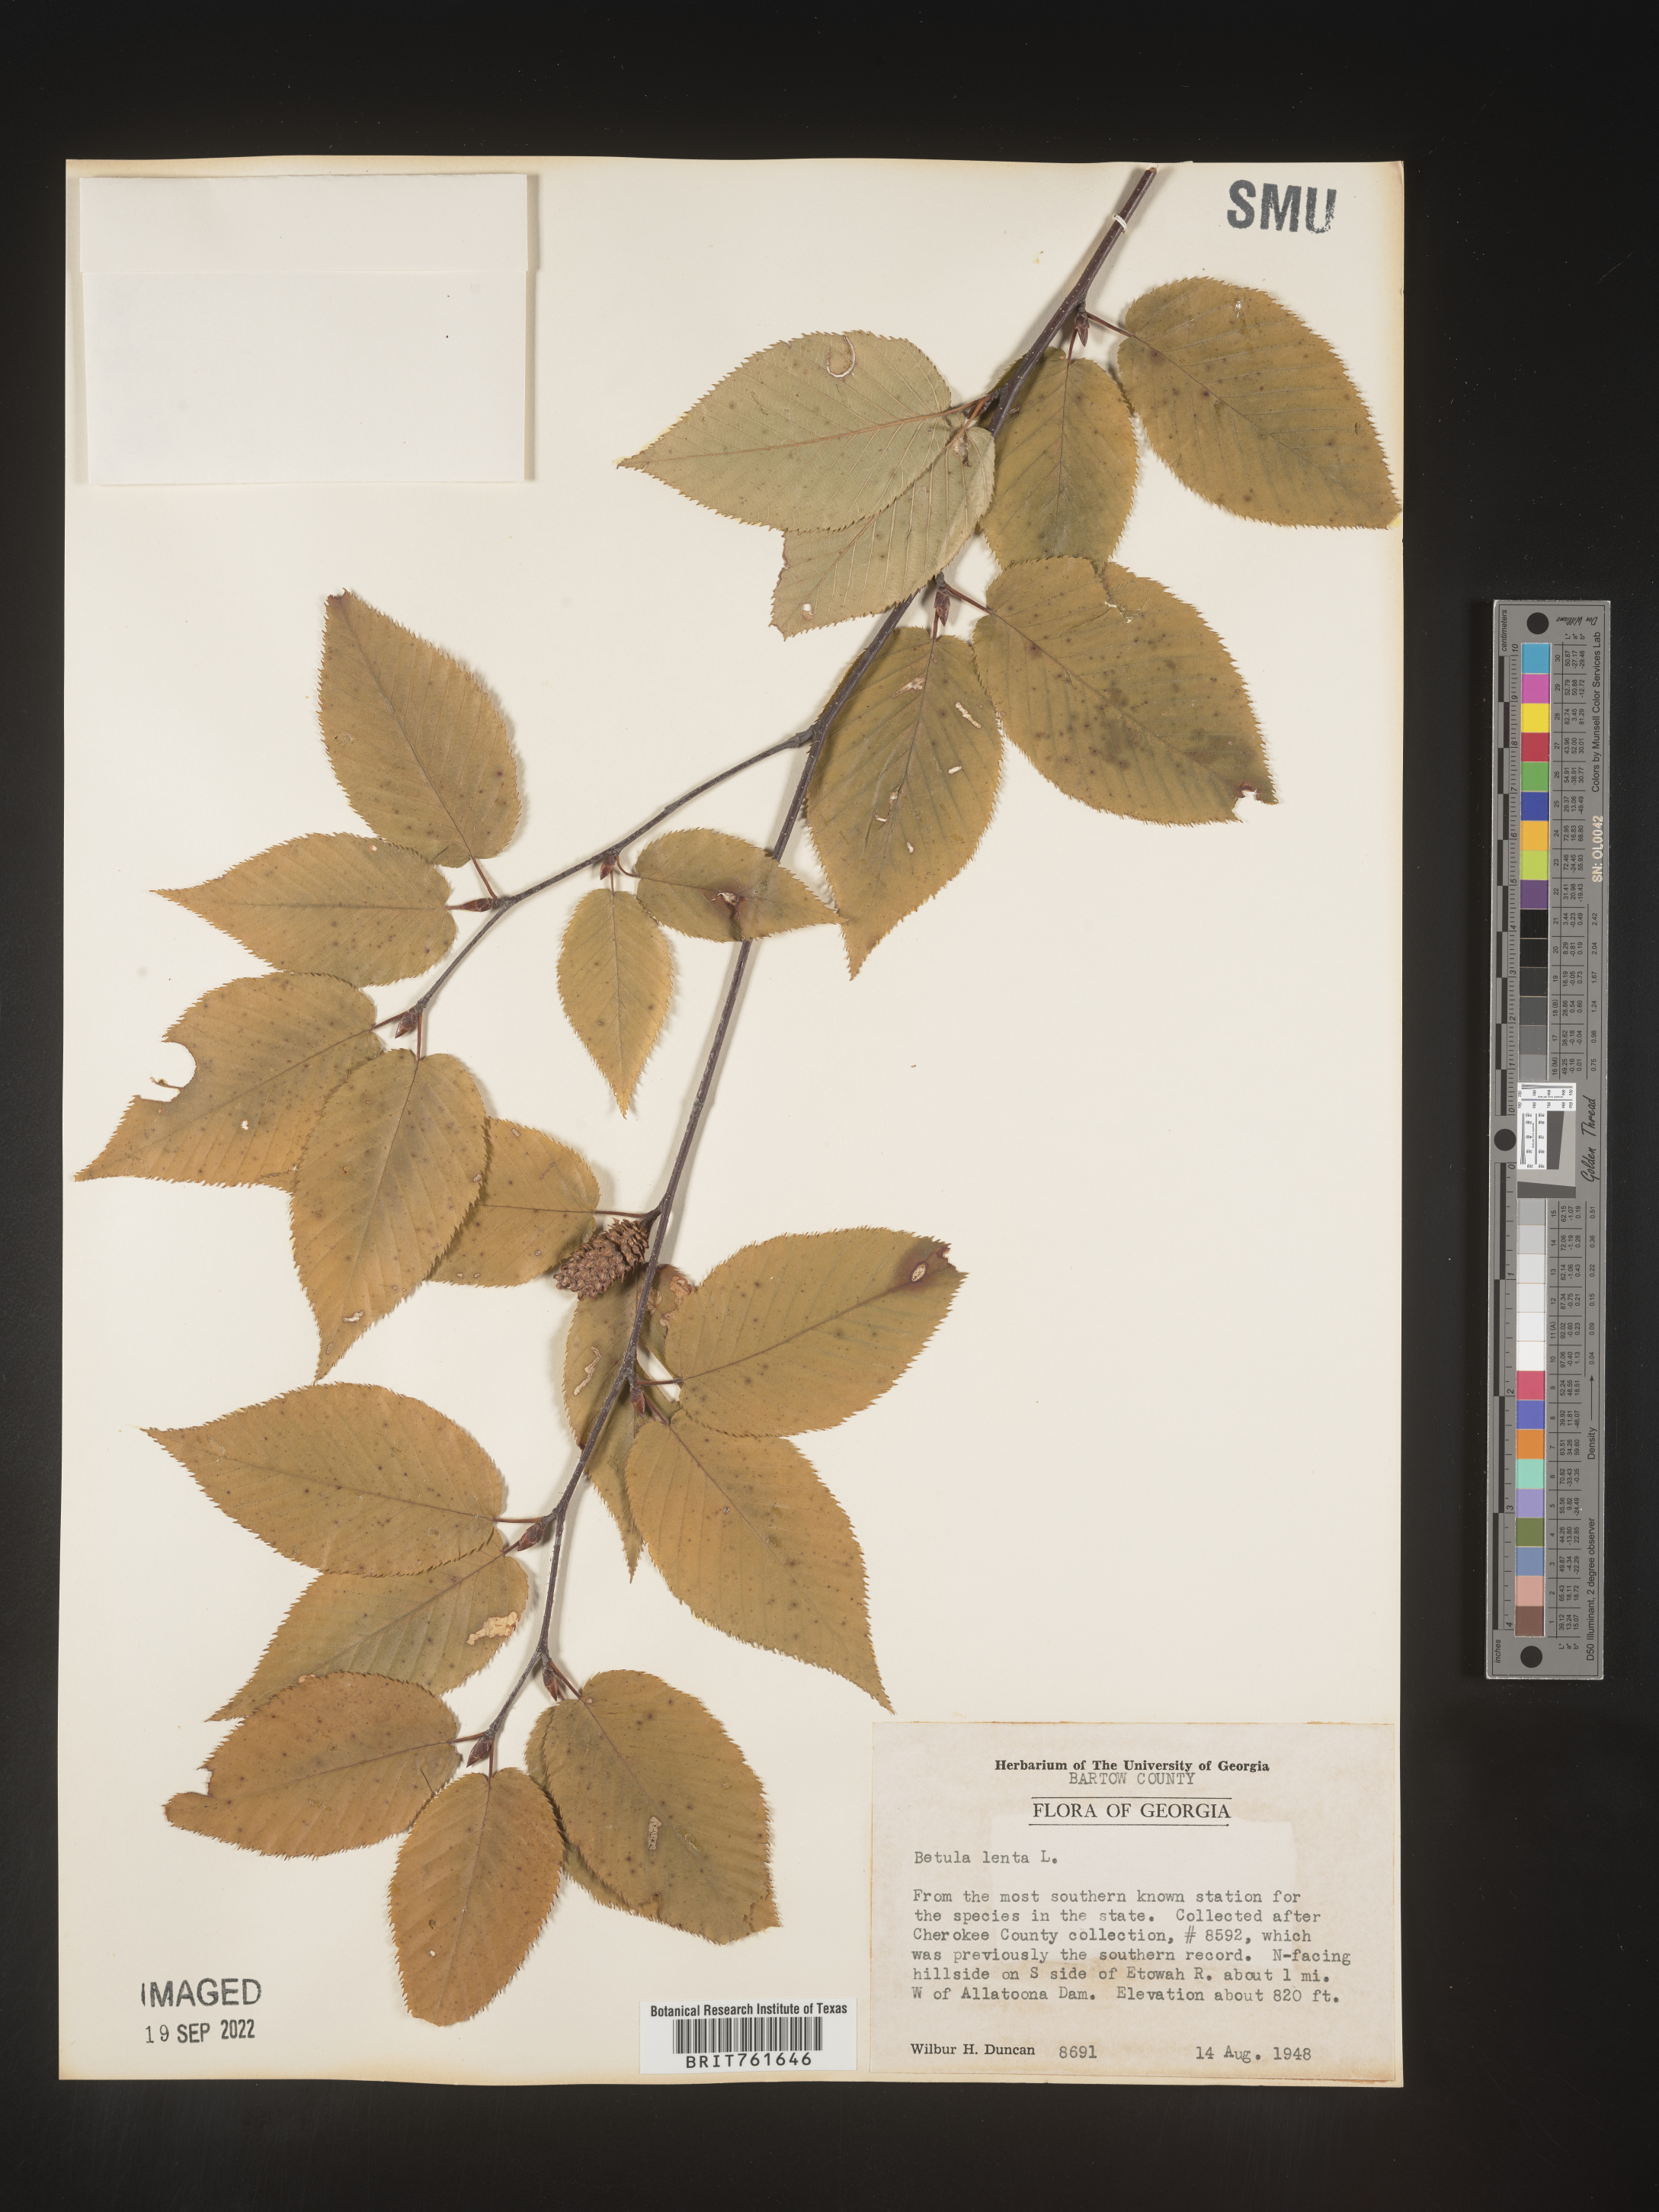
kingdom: Plantae
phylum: Tracheophyta
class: Magnoliopsida
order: Fagales
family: Betulaceae
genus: Betula
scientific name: Betula lenta
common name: Black birch
